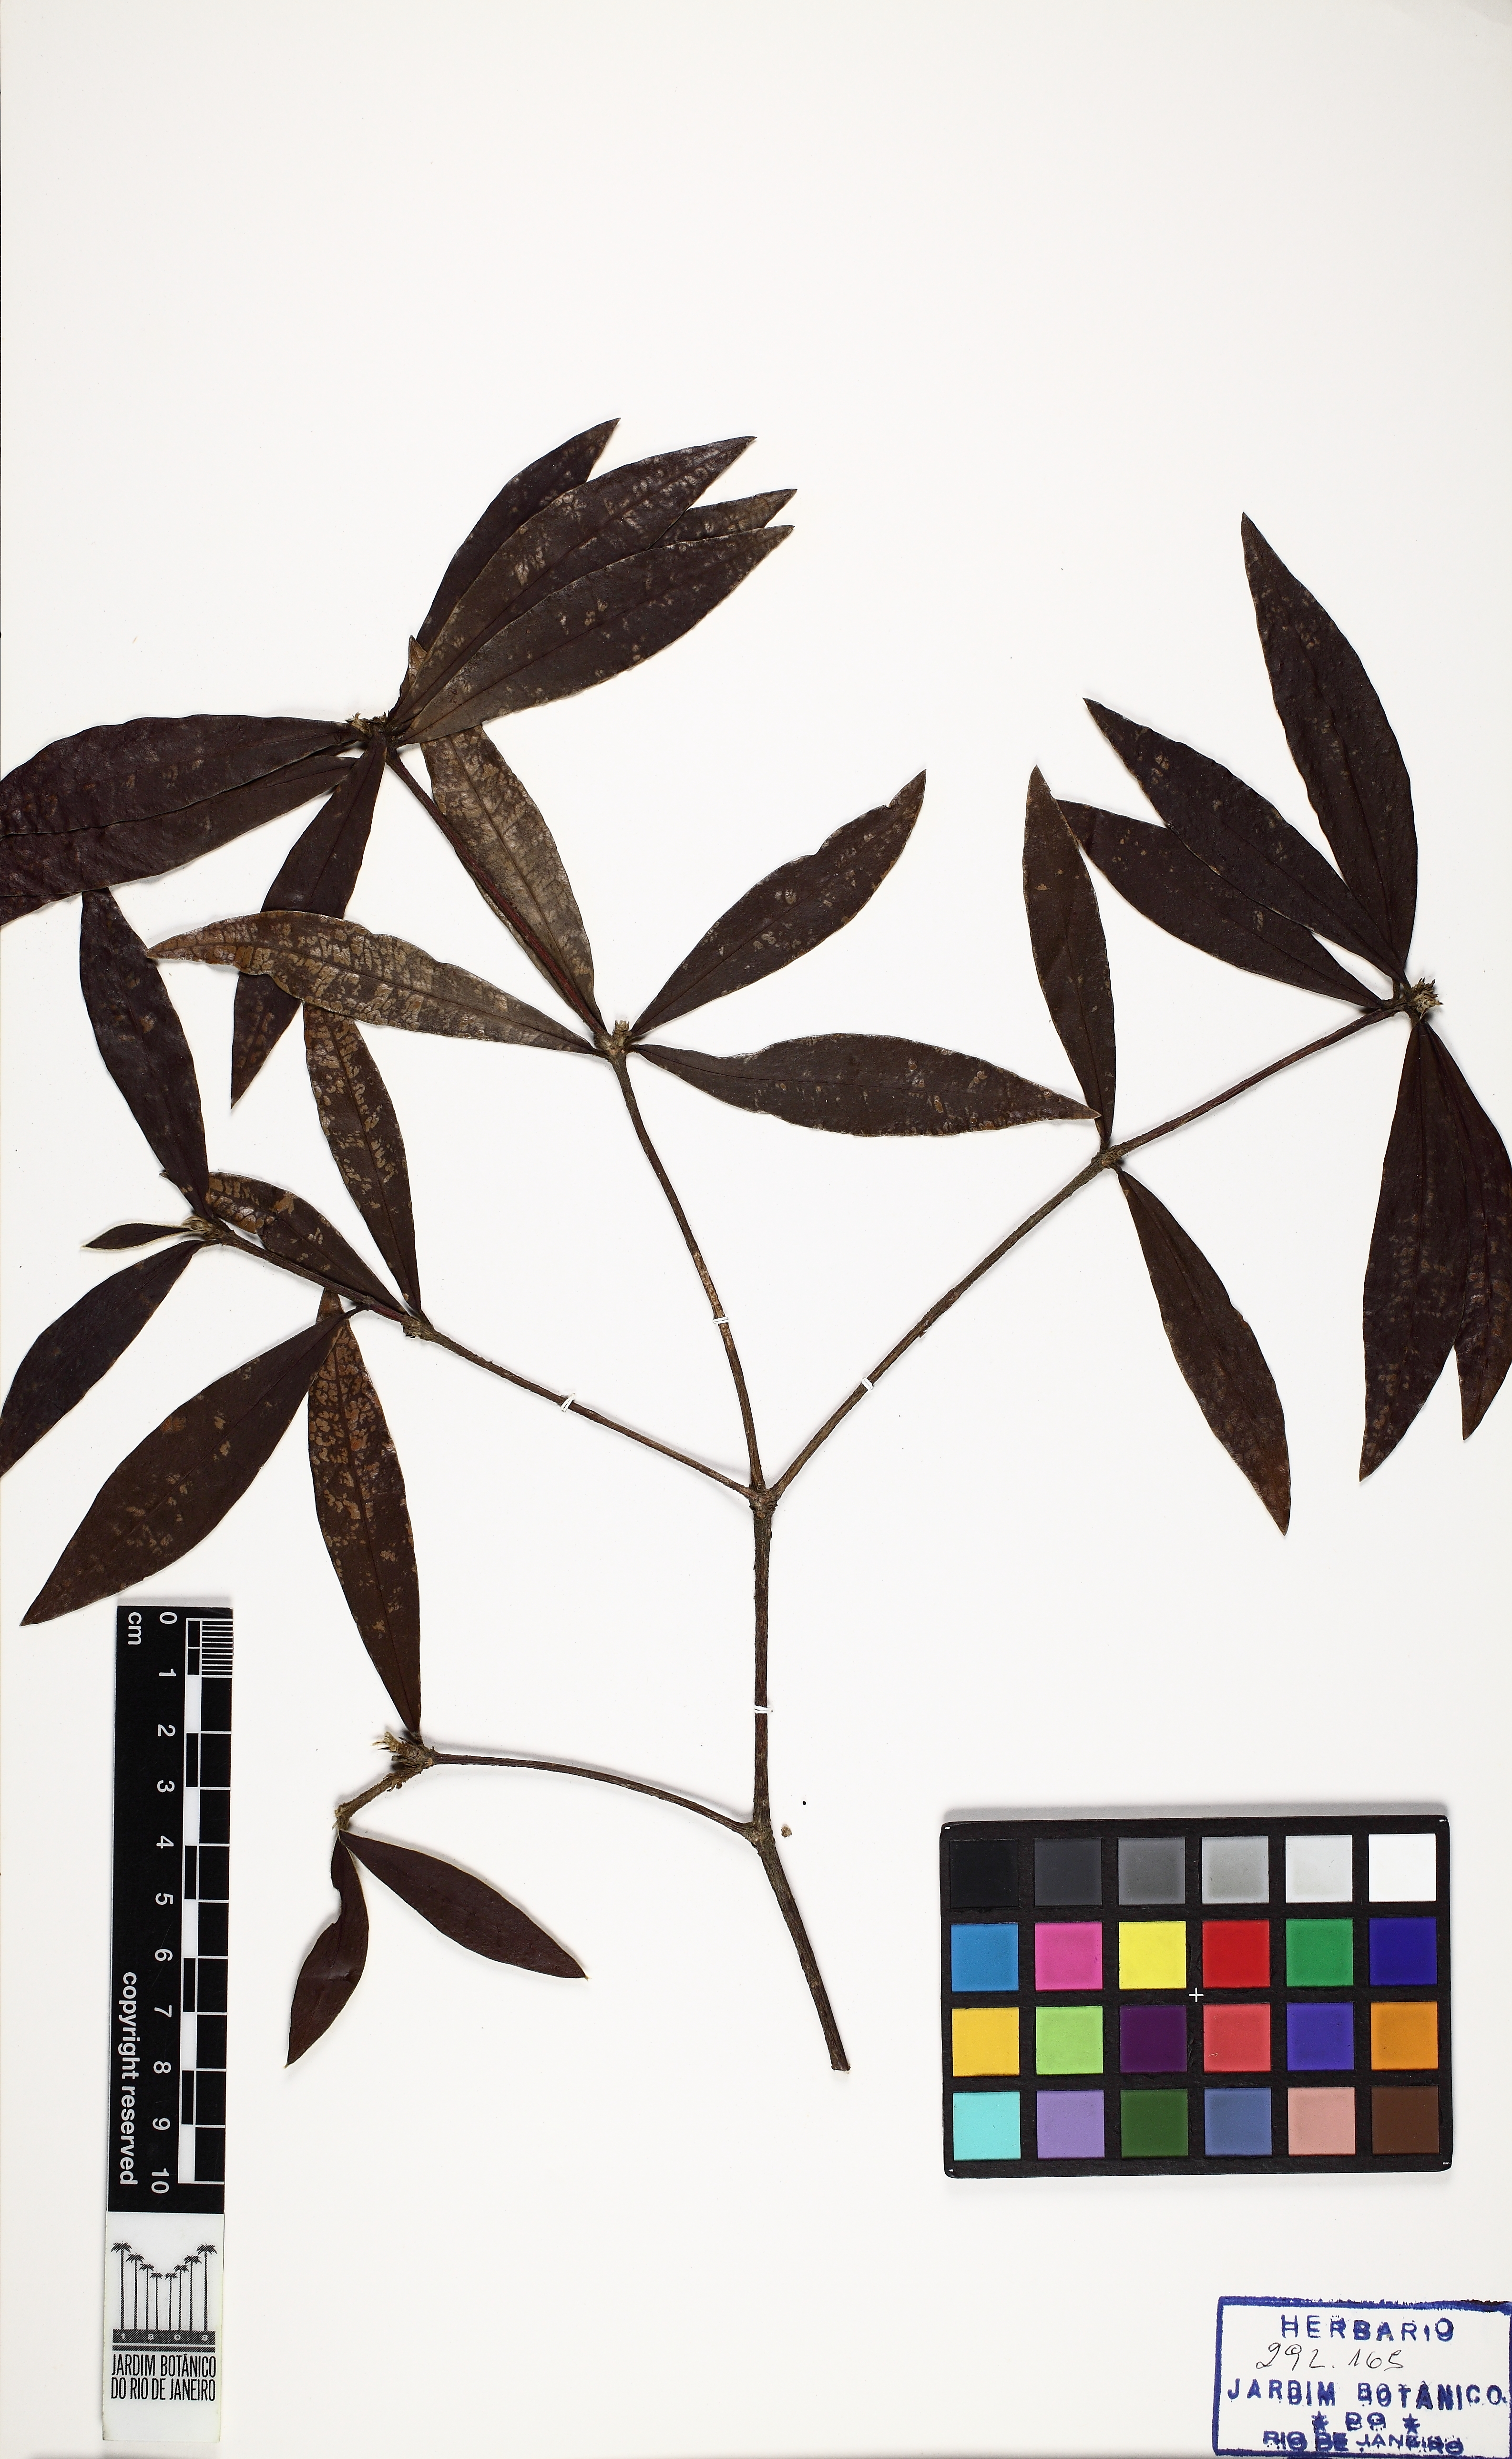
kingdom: Plantae
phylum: Tracheophyta
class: Magnoliopsida
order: Malvales
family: Thymelaeaceae
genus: Funifera
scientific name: Funifera brasiliensis
